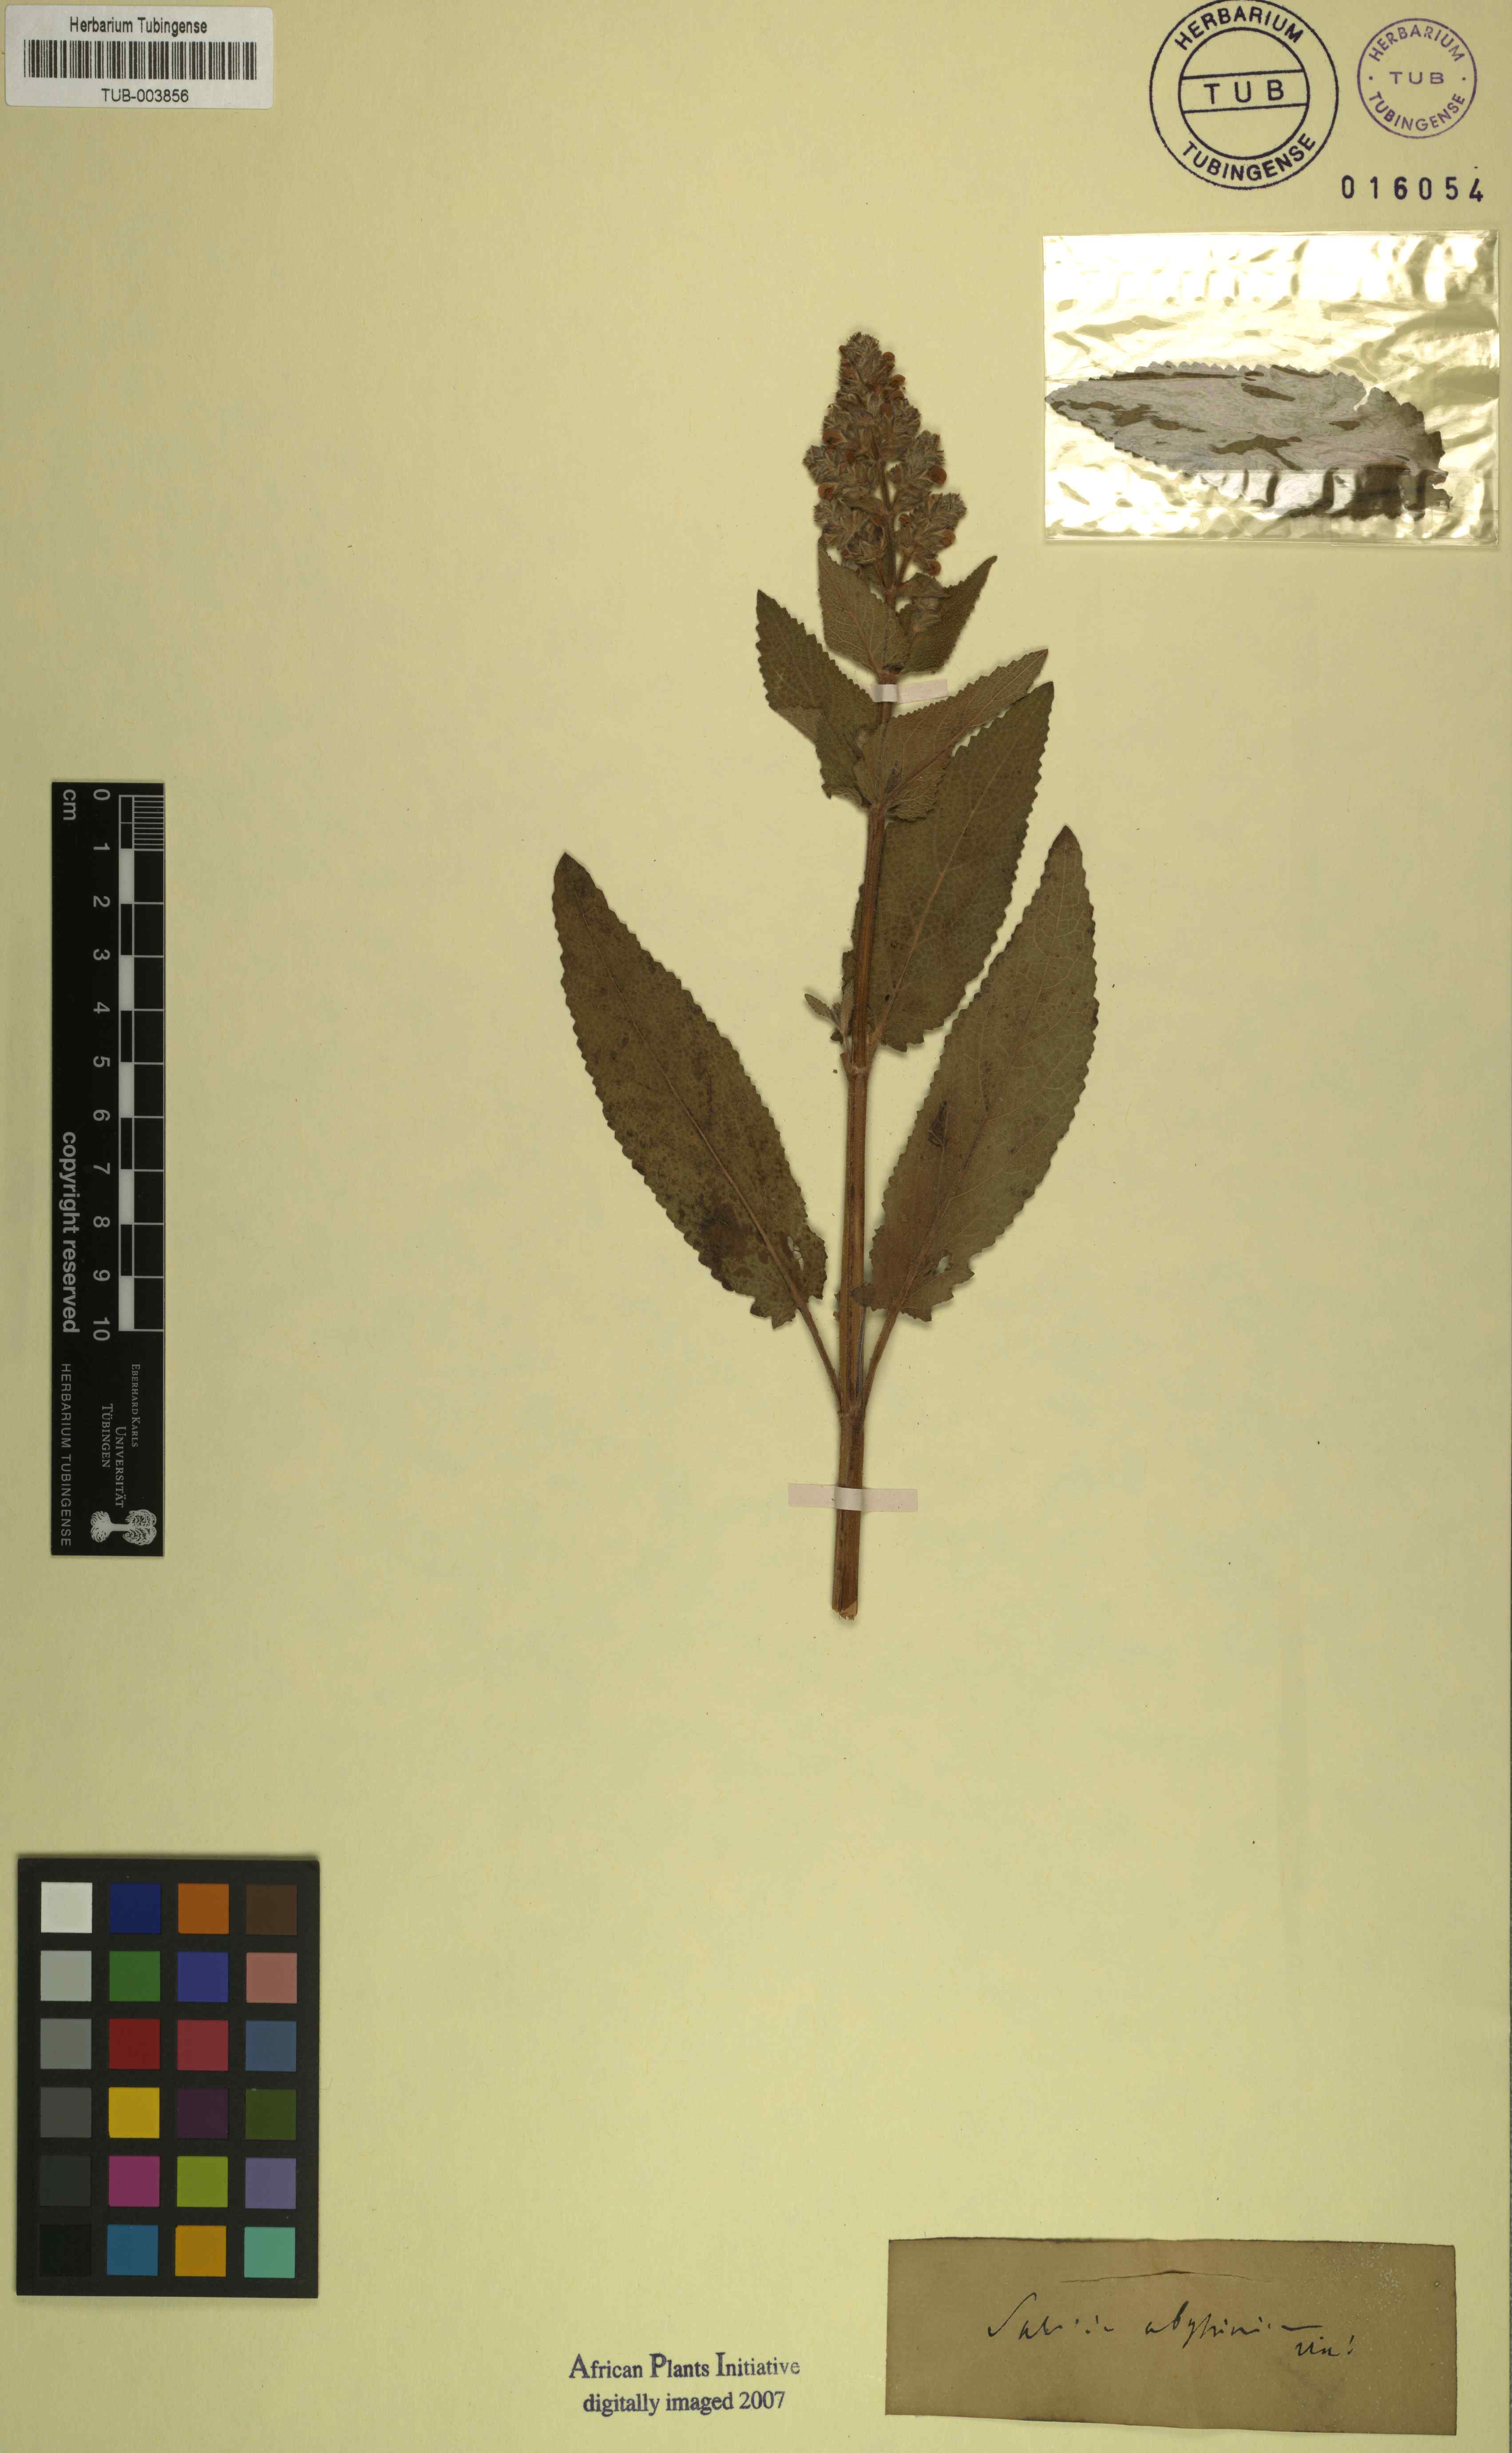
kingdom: Plantae
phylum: Tracheophyta
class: Magnoliopsida
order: Lamiales
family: Lamiaceae
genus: Salvia
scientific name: Salvia abyssinica
